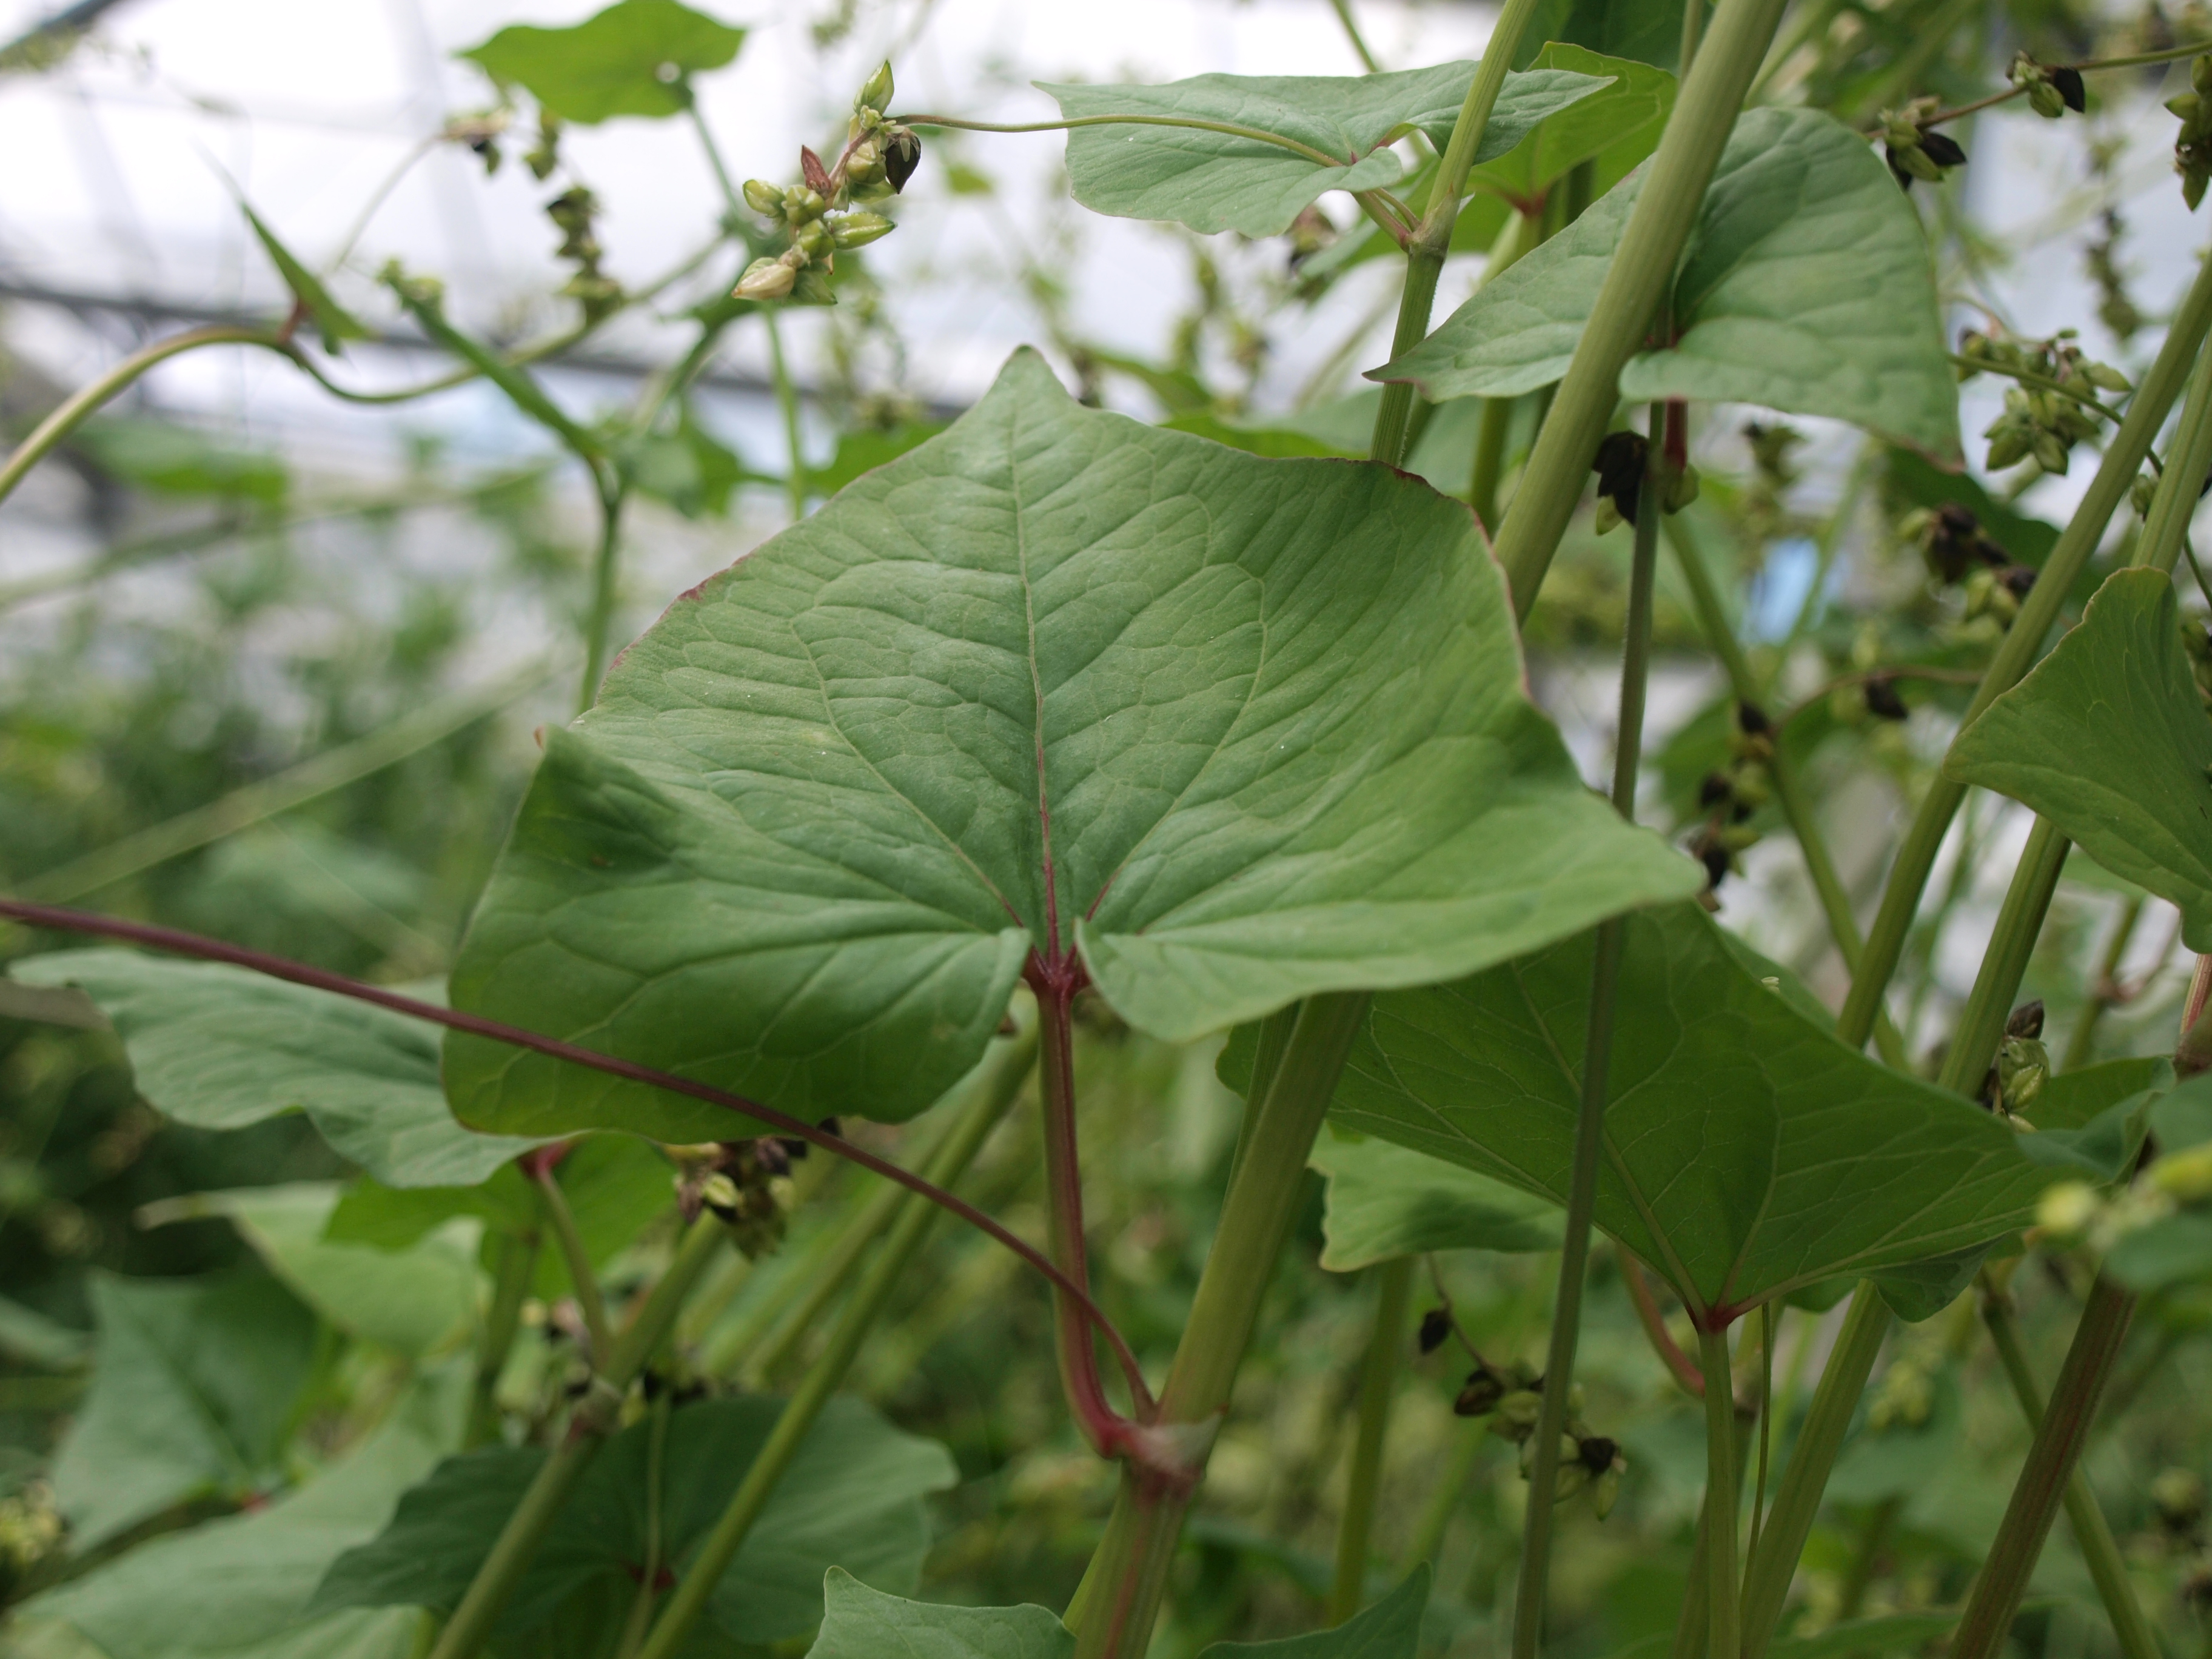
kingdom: Plantae
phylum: Tracheophyta
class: Magnoliopsida
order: Caryophyllales
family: Polygonaceae
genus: Fagopyrum
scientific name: Fagopyrum tataricum
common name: Green buckwheat
